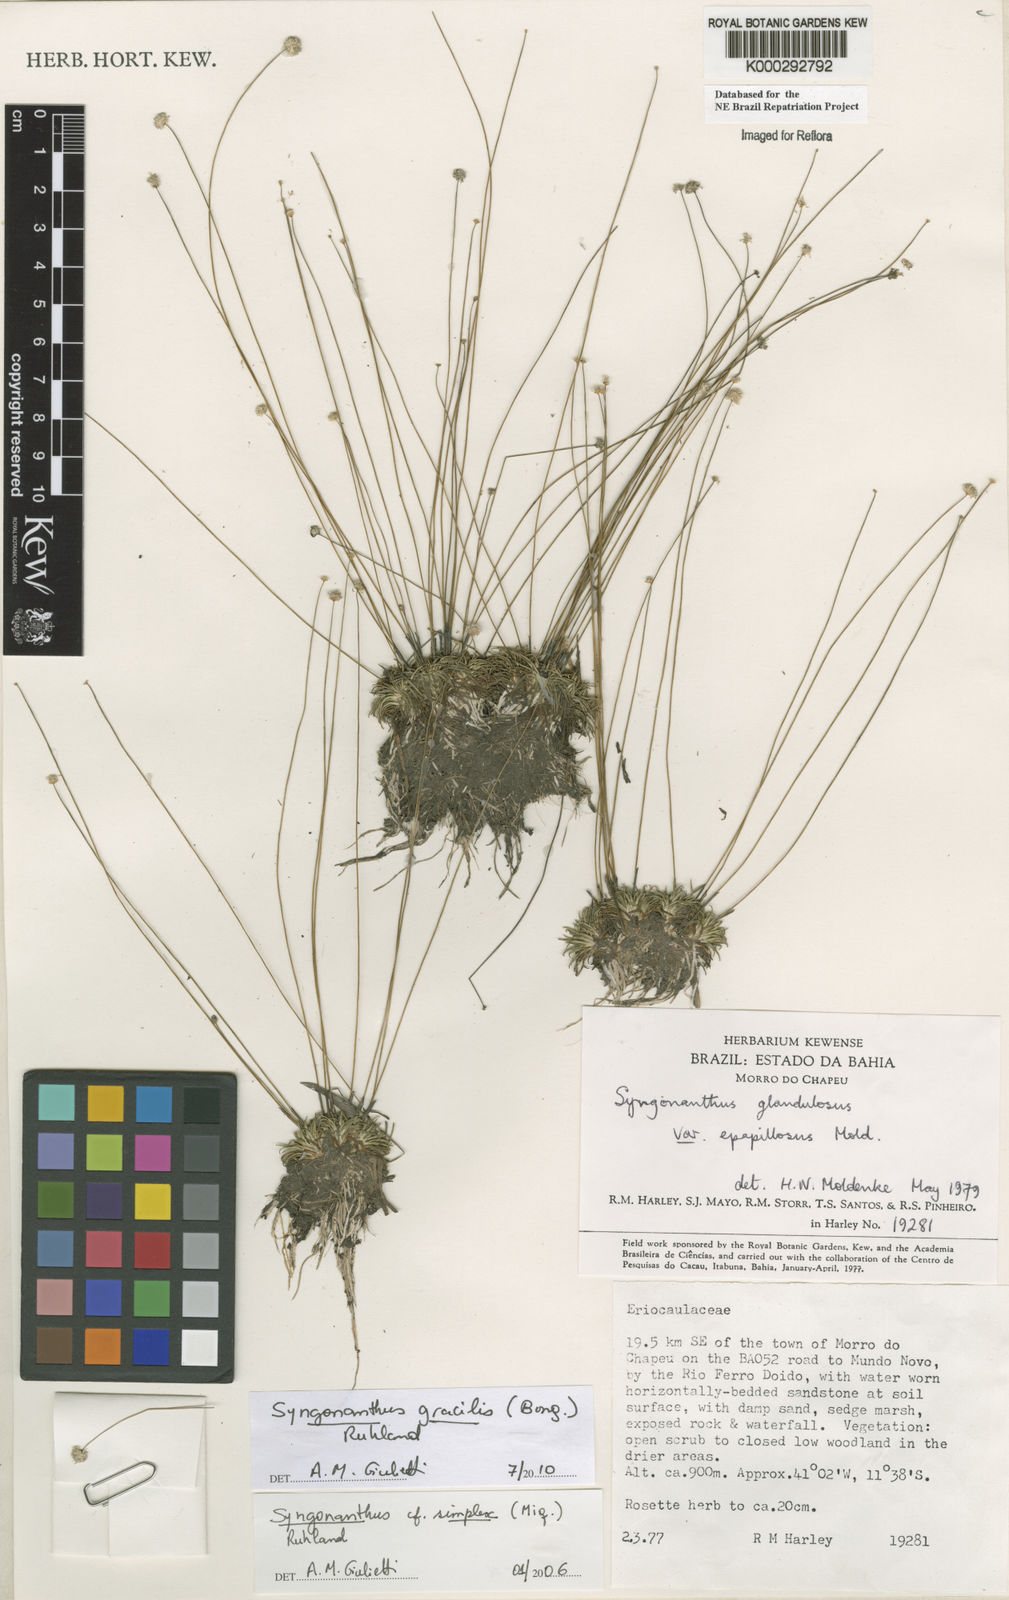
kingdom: Plantae
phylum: Tracheophyta
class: Liliopsida
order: Poales
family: Eriocaulaceae
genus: Syngonanthus
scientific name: Syngonanthus caulescens
